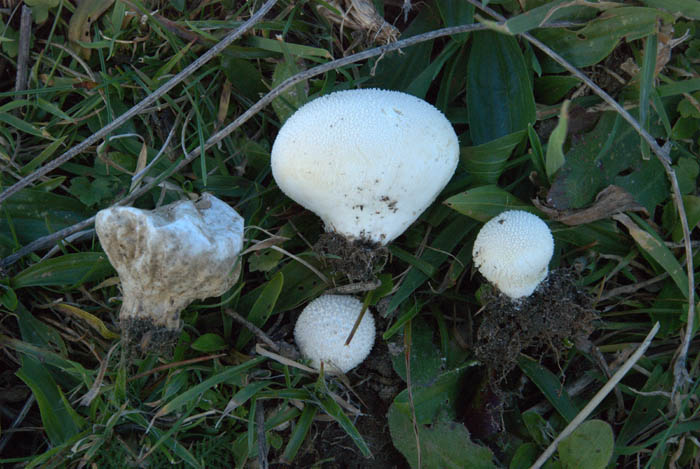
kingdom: Fungi
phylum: Basidiomycota
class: Agaricomycetes
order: Agaricales
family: Lycoperdaceae
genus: Lycoperdon
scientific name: Lycoperdon pratense
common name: flad støvbold
